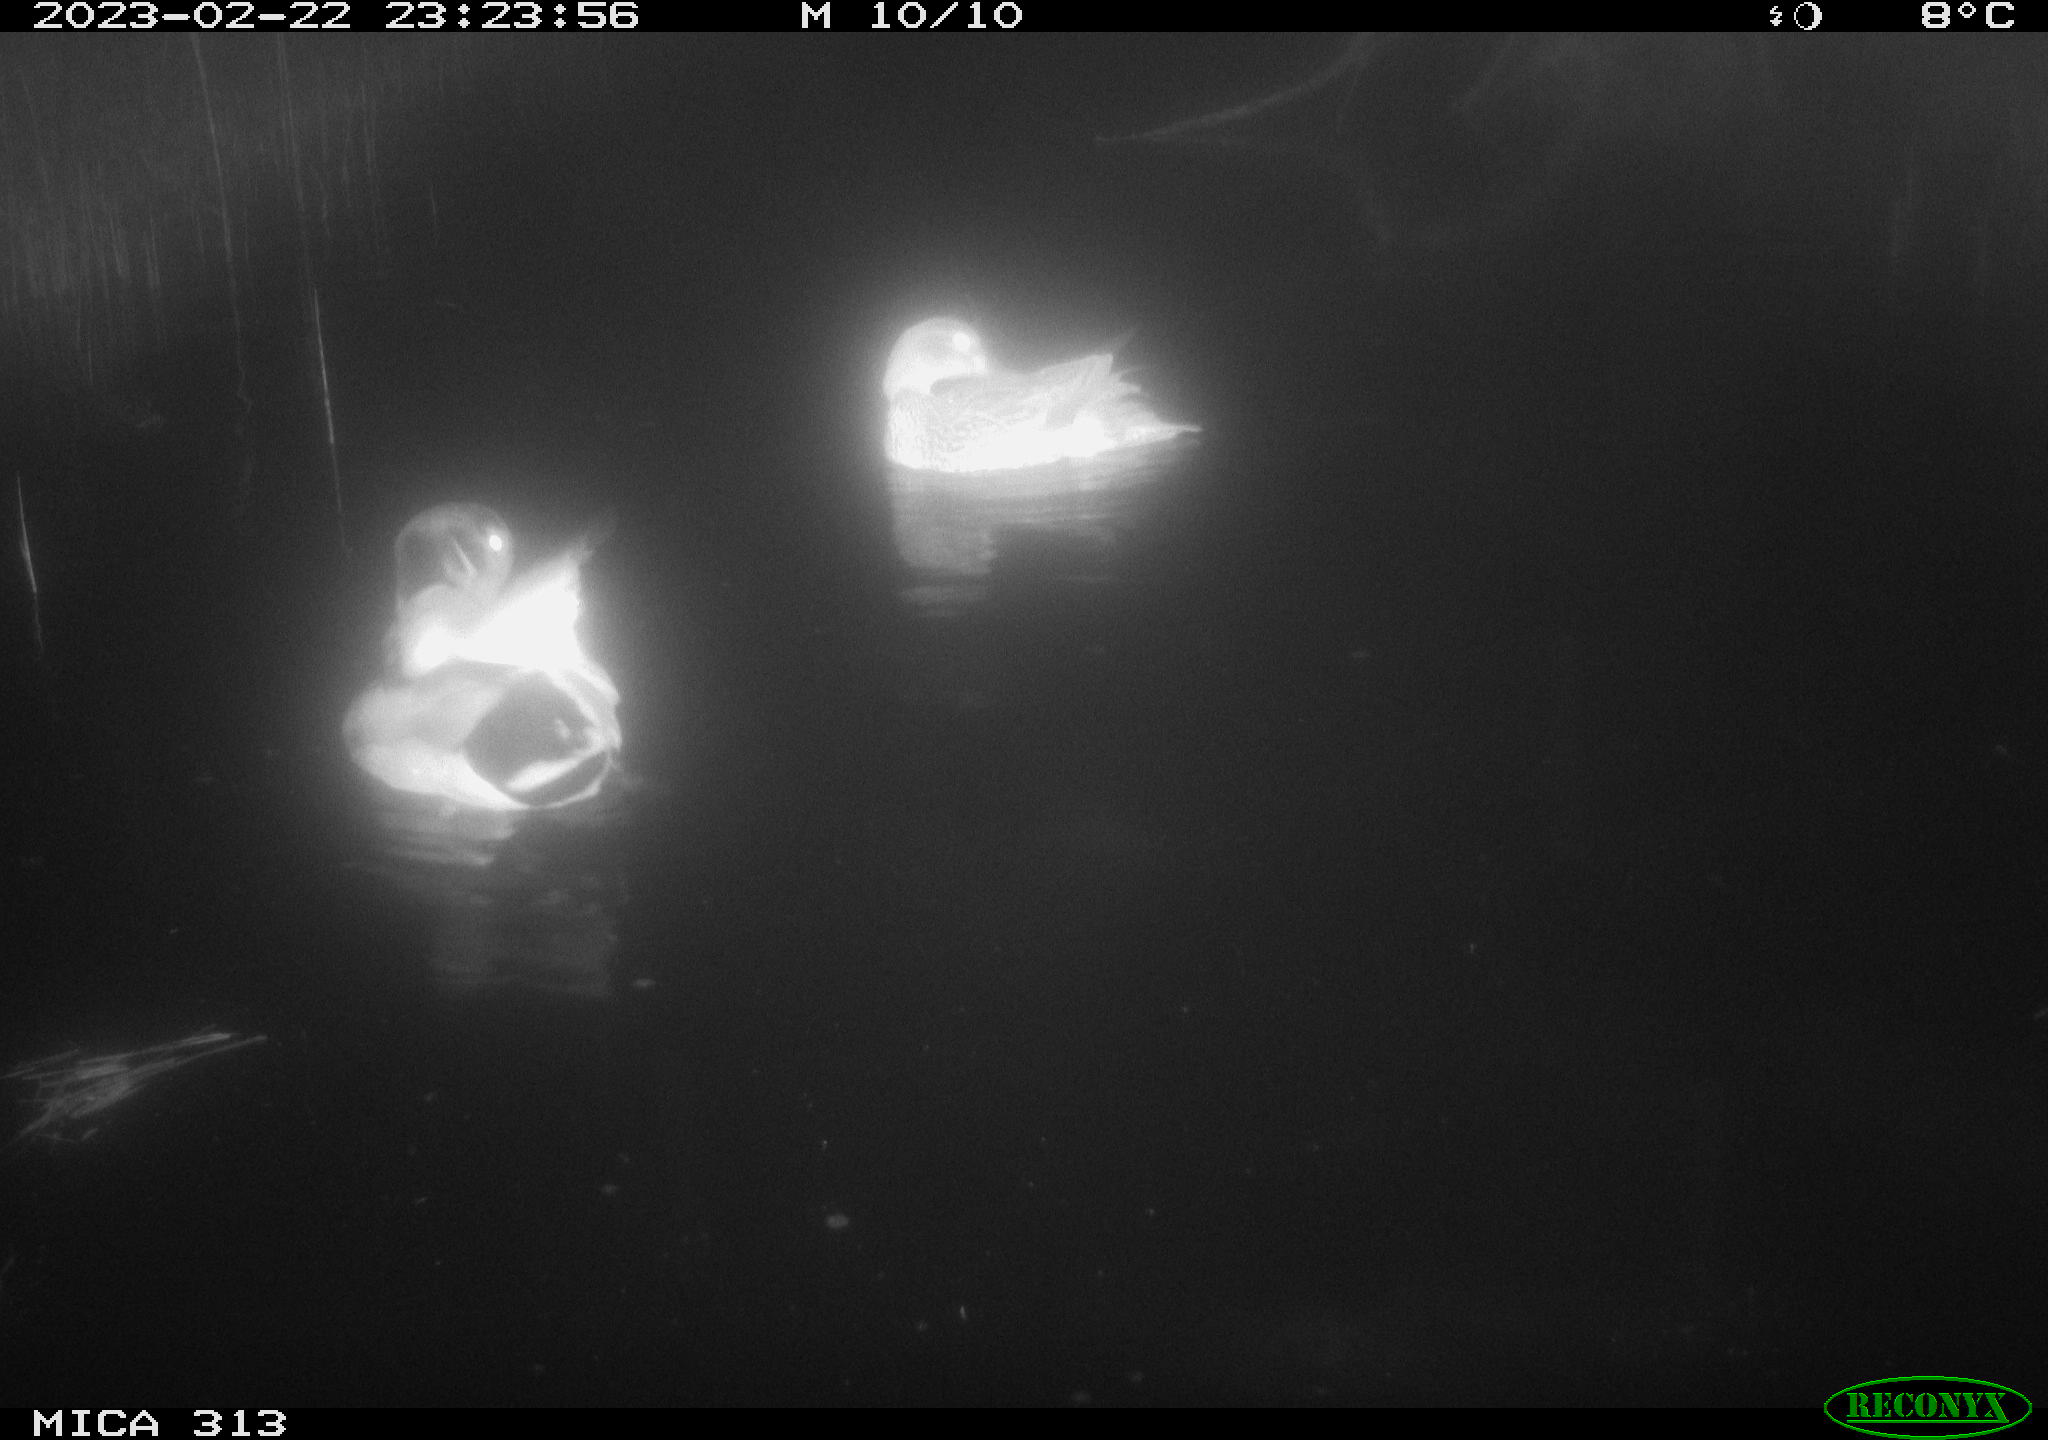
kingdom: Animalia
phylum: Chordata
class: Aves
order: Anseriformes
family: Anatidae
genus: Anas
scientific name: Anas
